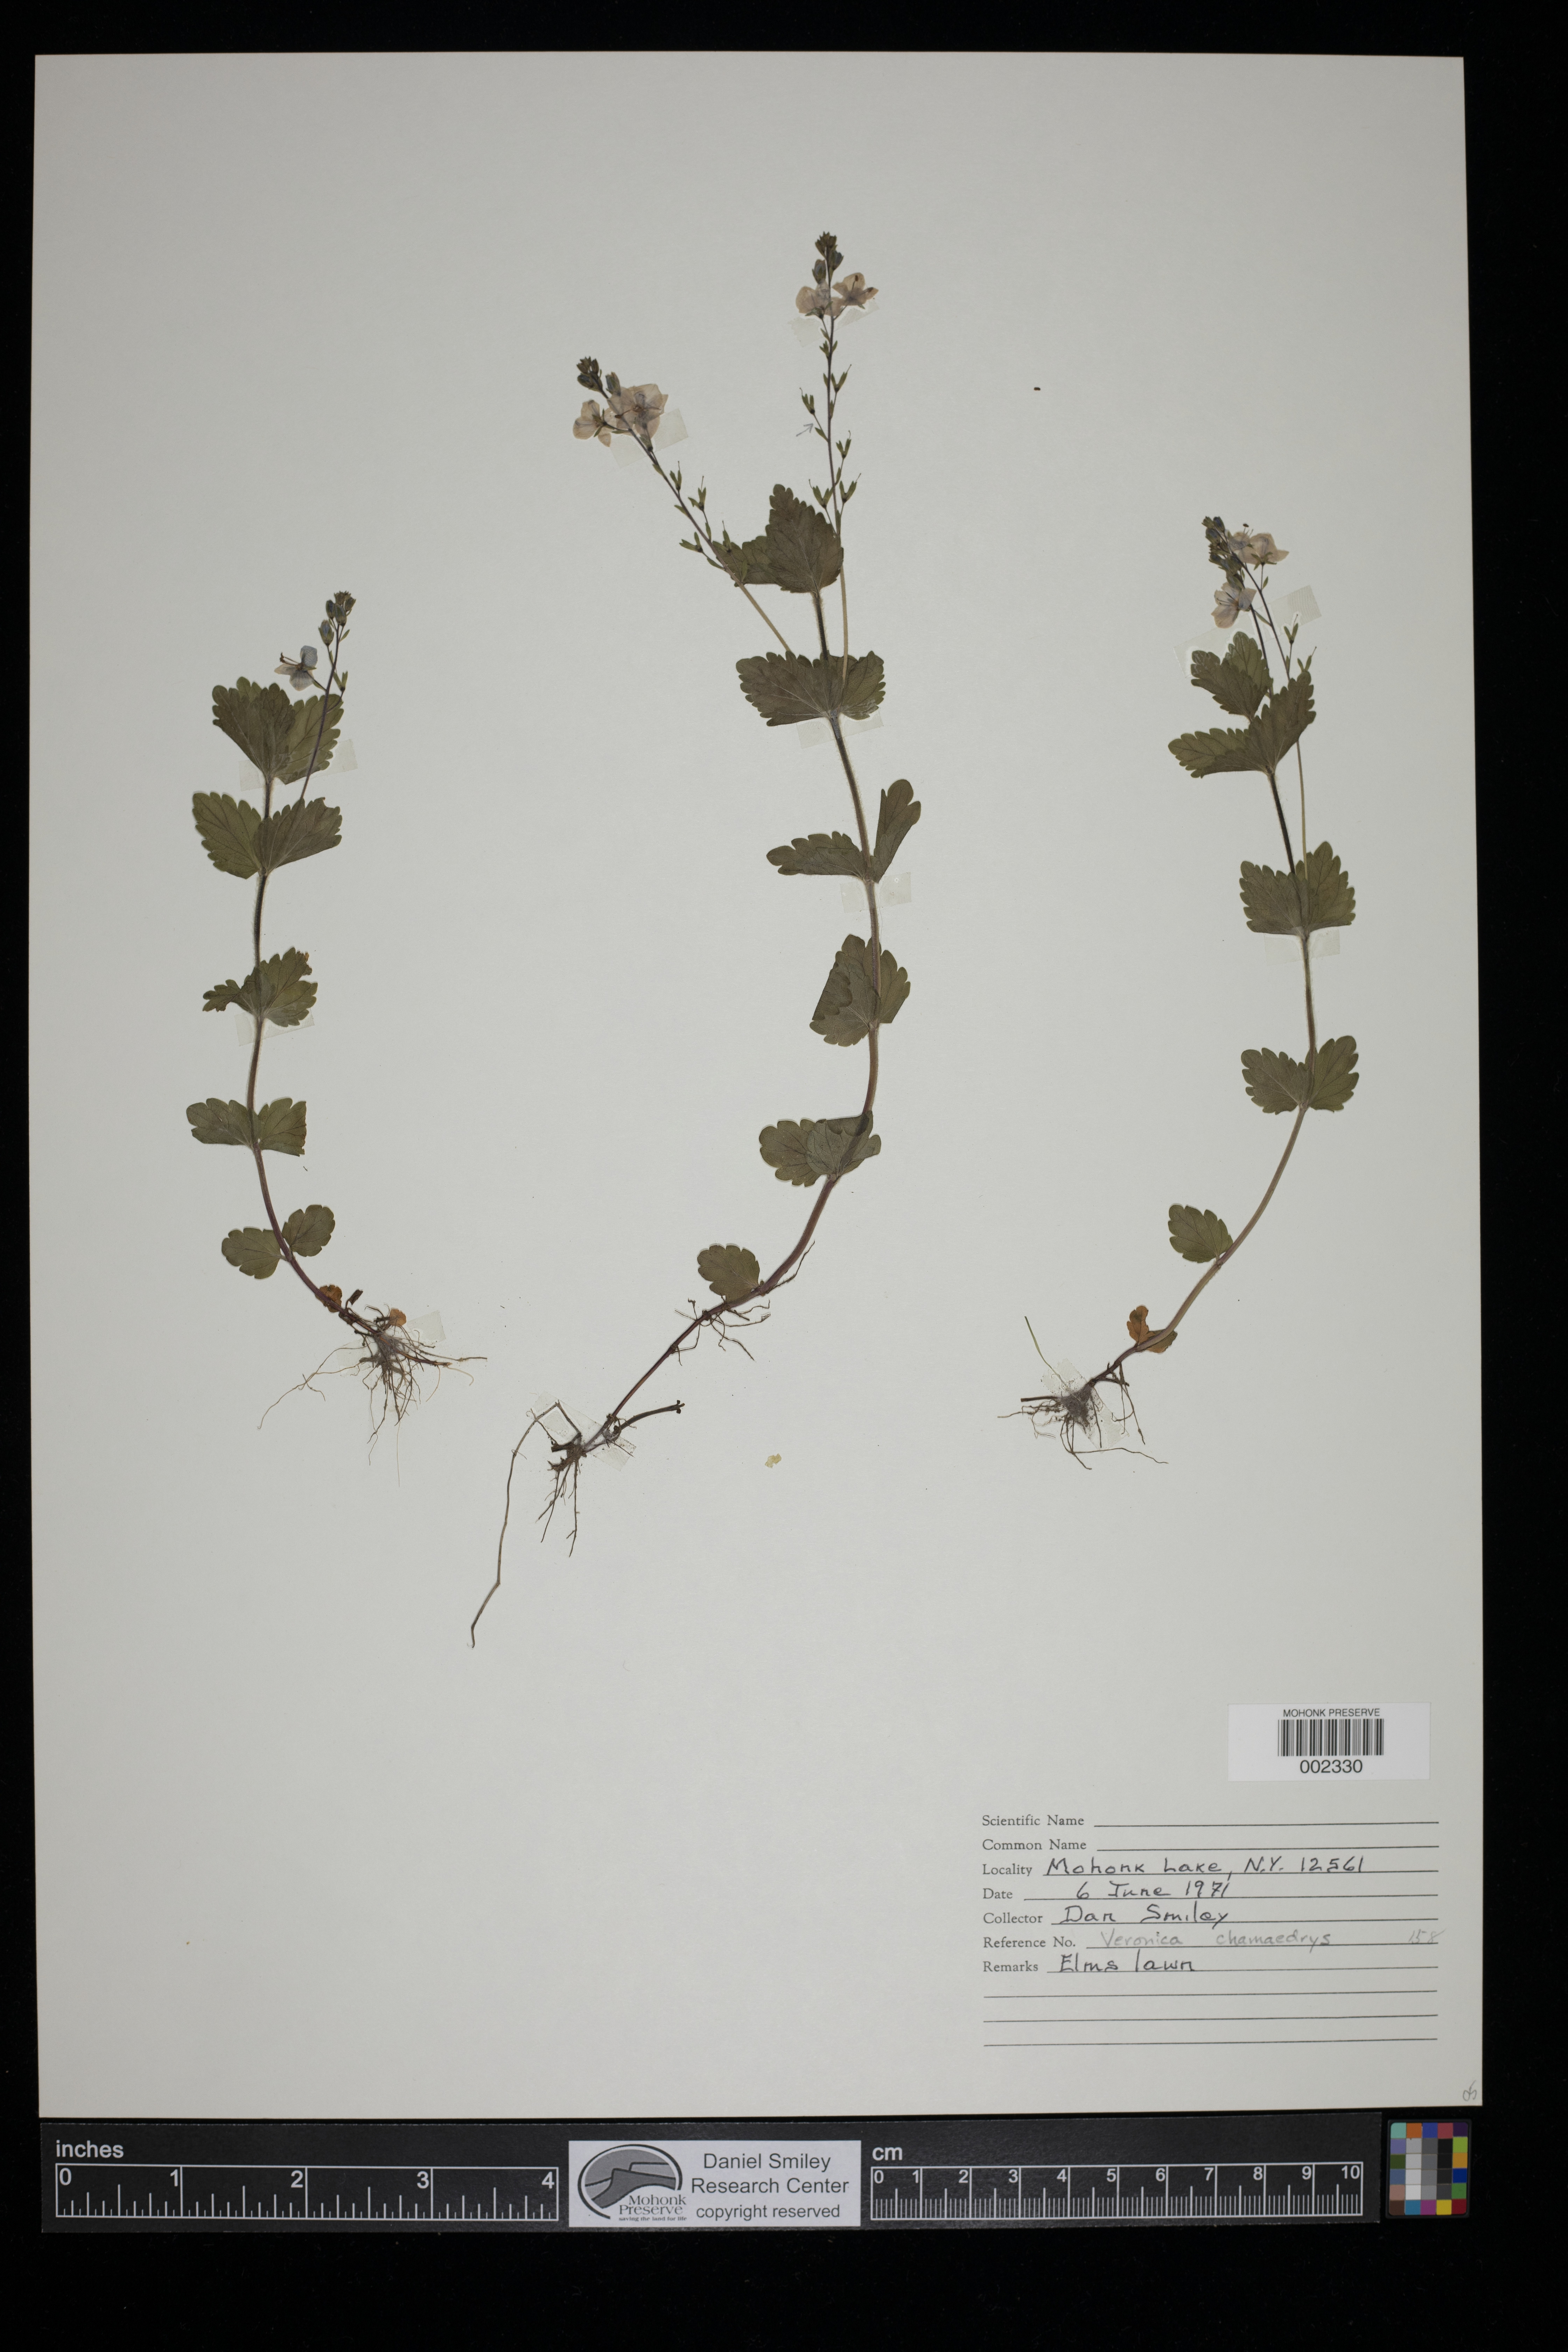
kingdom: Plantae
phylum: Tracheophyta
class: Magnoliopsida
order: Lamiales
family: Plantaginaceae
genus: Veronica
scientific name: Veronica chamaedrys
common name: Germander speedwell
